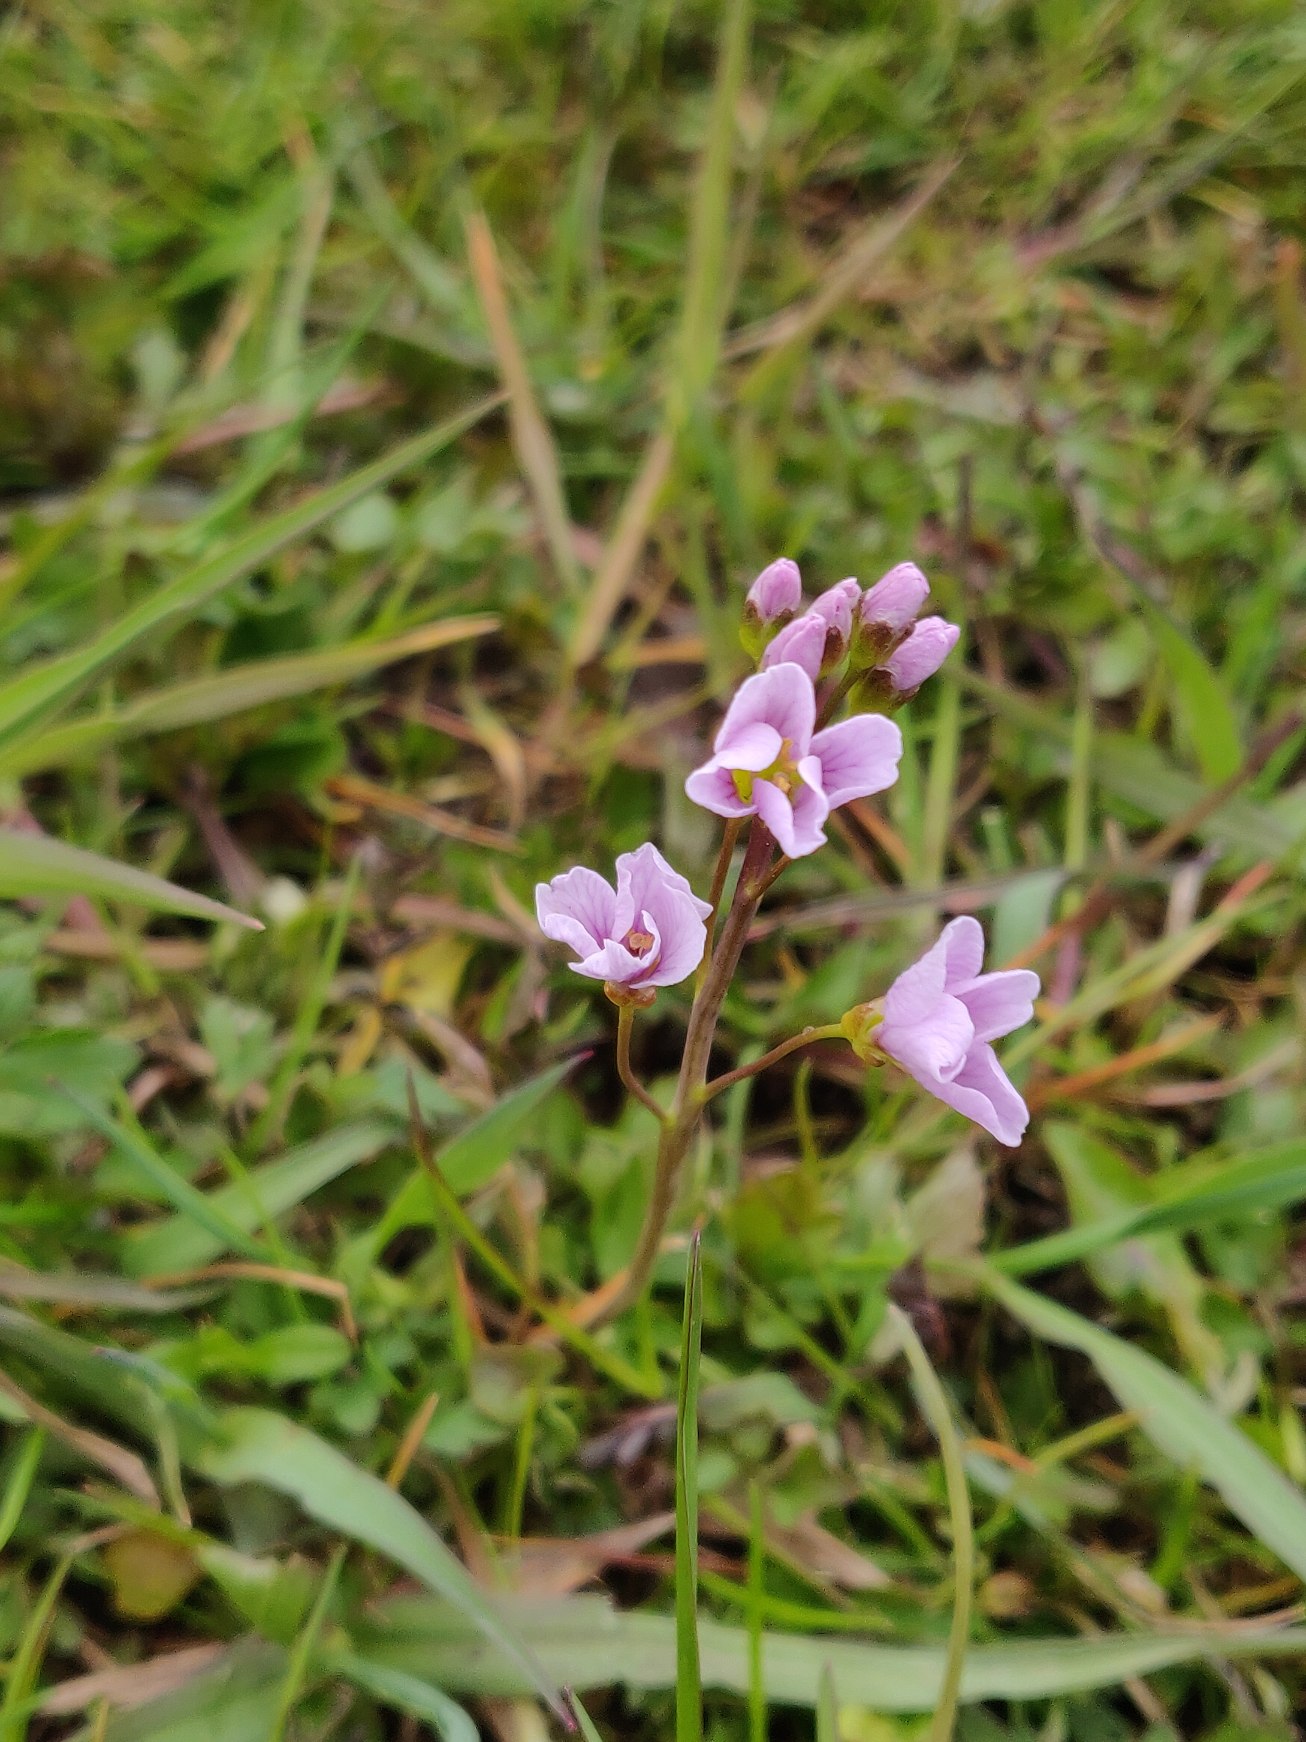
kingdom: Plantae
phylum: Tracheophyta
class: Magnoliopsida
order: Brassicales
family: Brassicaceae
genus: Cardamine
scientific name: Cardamine pratensis
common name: Almindelig engkarse
